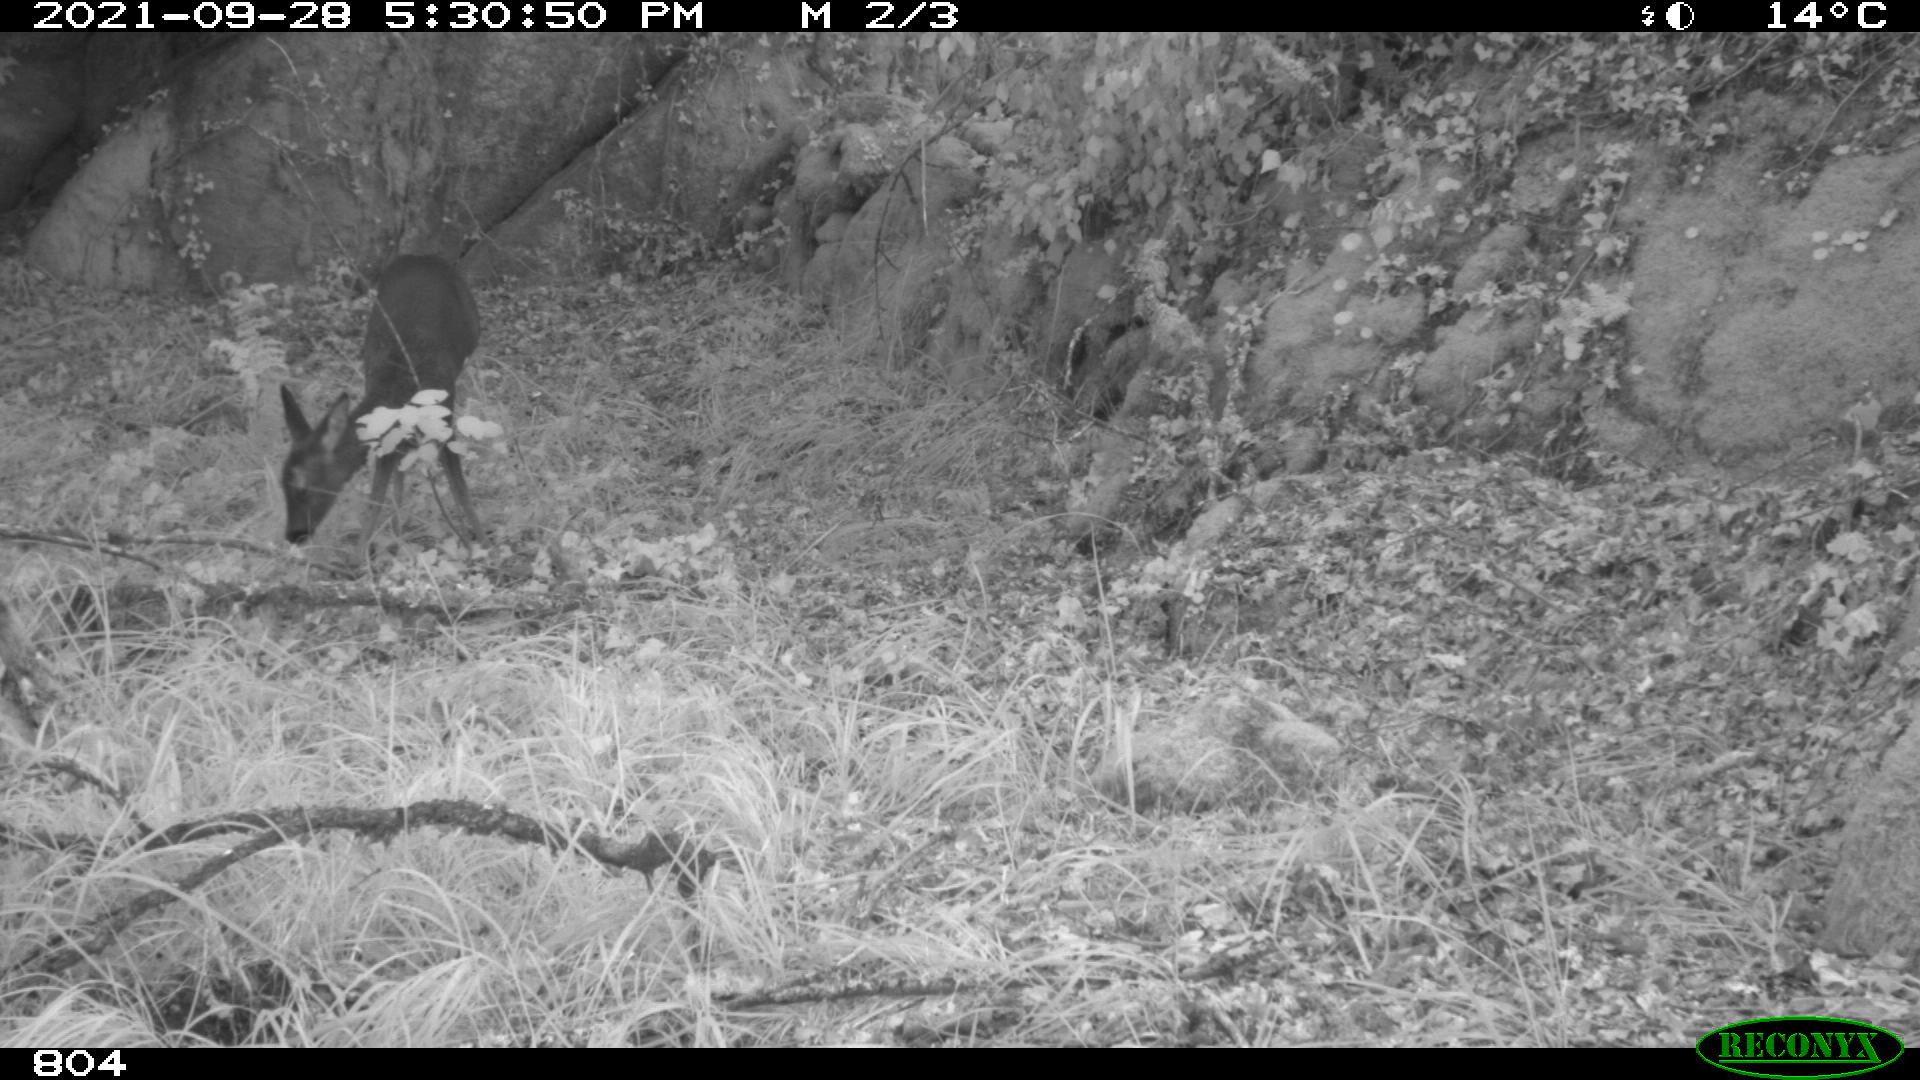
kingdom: Animalia
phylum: Chordata
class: Mammalia
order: Artiodactyla
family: Cervidae
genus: Capreolus
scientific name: Capreolus capreolus
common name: Western roe deer
